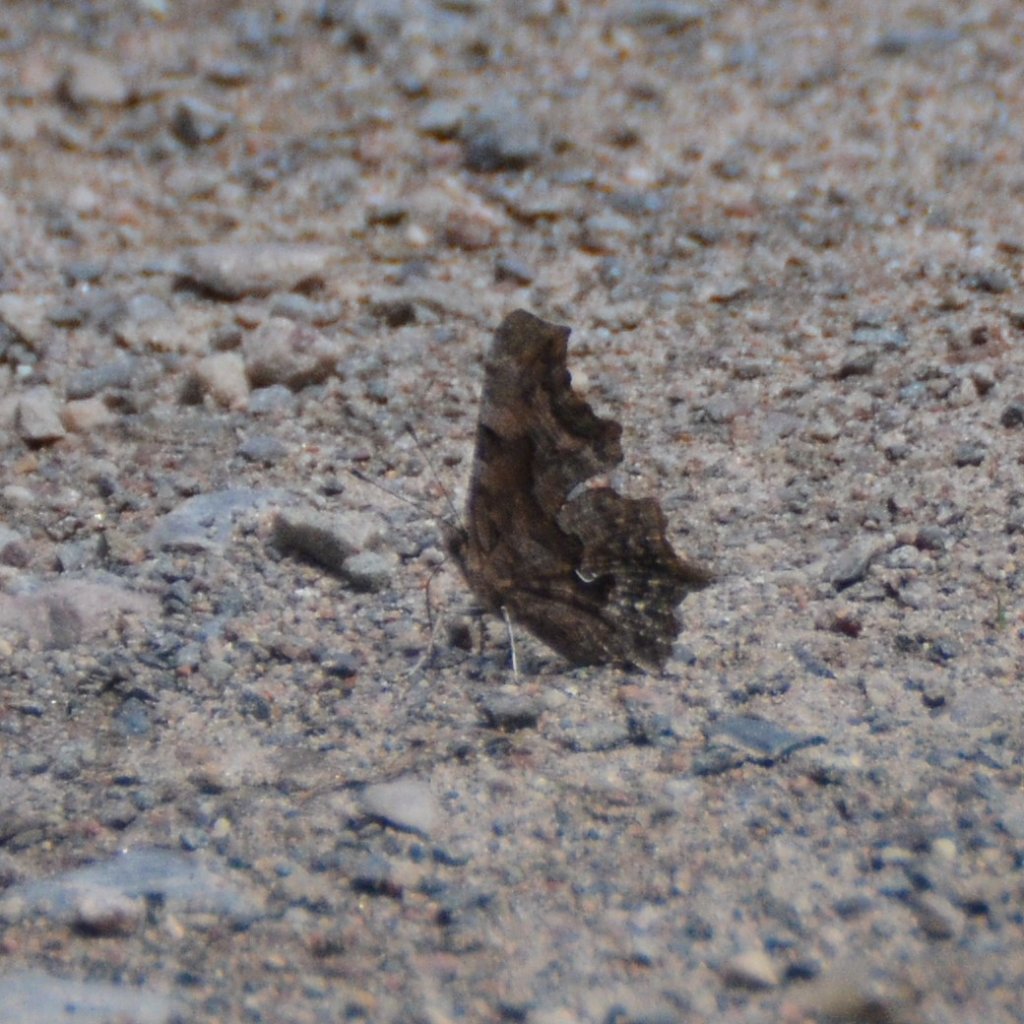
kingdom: Animalia
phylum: Arthropoda
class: Insecta
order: Lepidoptera
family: Nymphalidae
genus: Polygonia
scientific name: Polygonia faunus
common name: Green Comma
